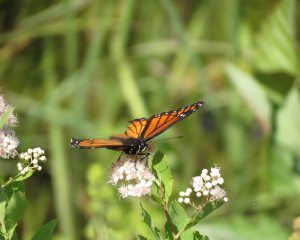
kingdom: Animalia
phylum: Arthropoda
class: Insecta
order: Lepidoptera
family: Nymphalidae
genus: Limenitis
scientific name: Limenitis archippus
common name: Viceroy
